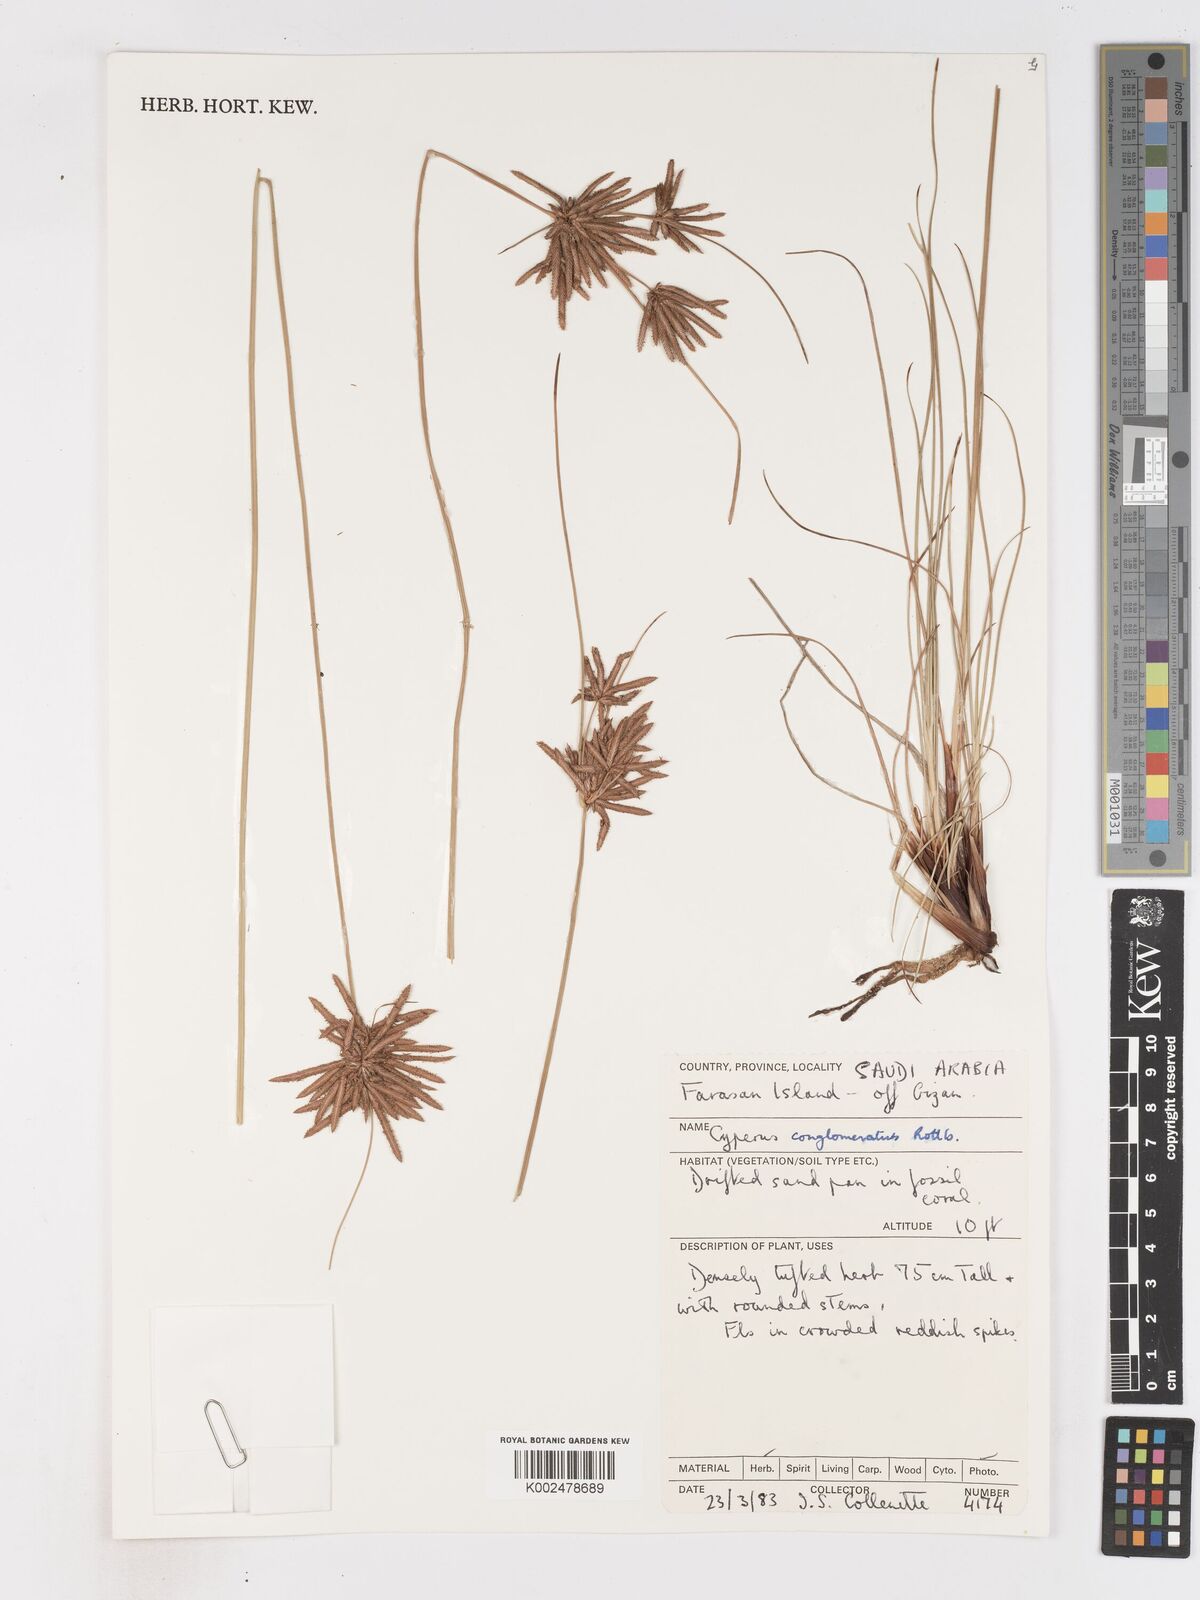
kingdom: Plantae
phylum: Tracheophyta
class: Liliopsida
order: Poales
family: Cyperaceae
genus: Cyperus
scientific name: Cyperus conglomeratus
